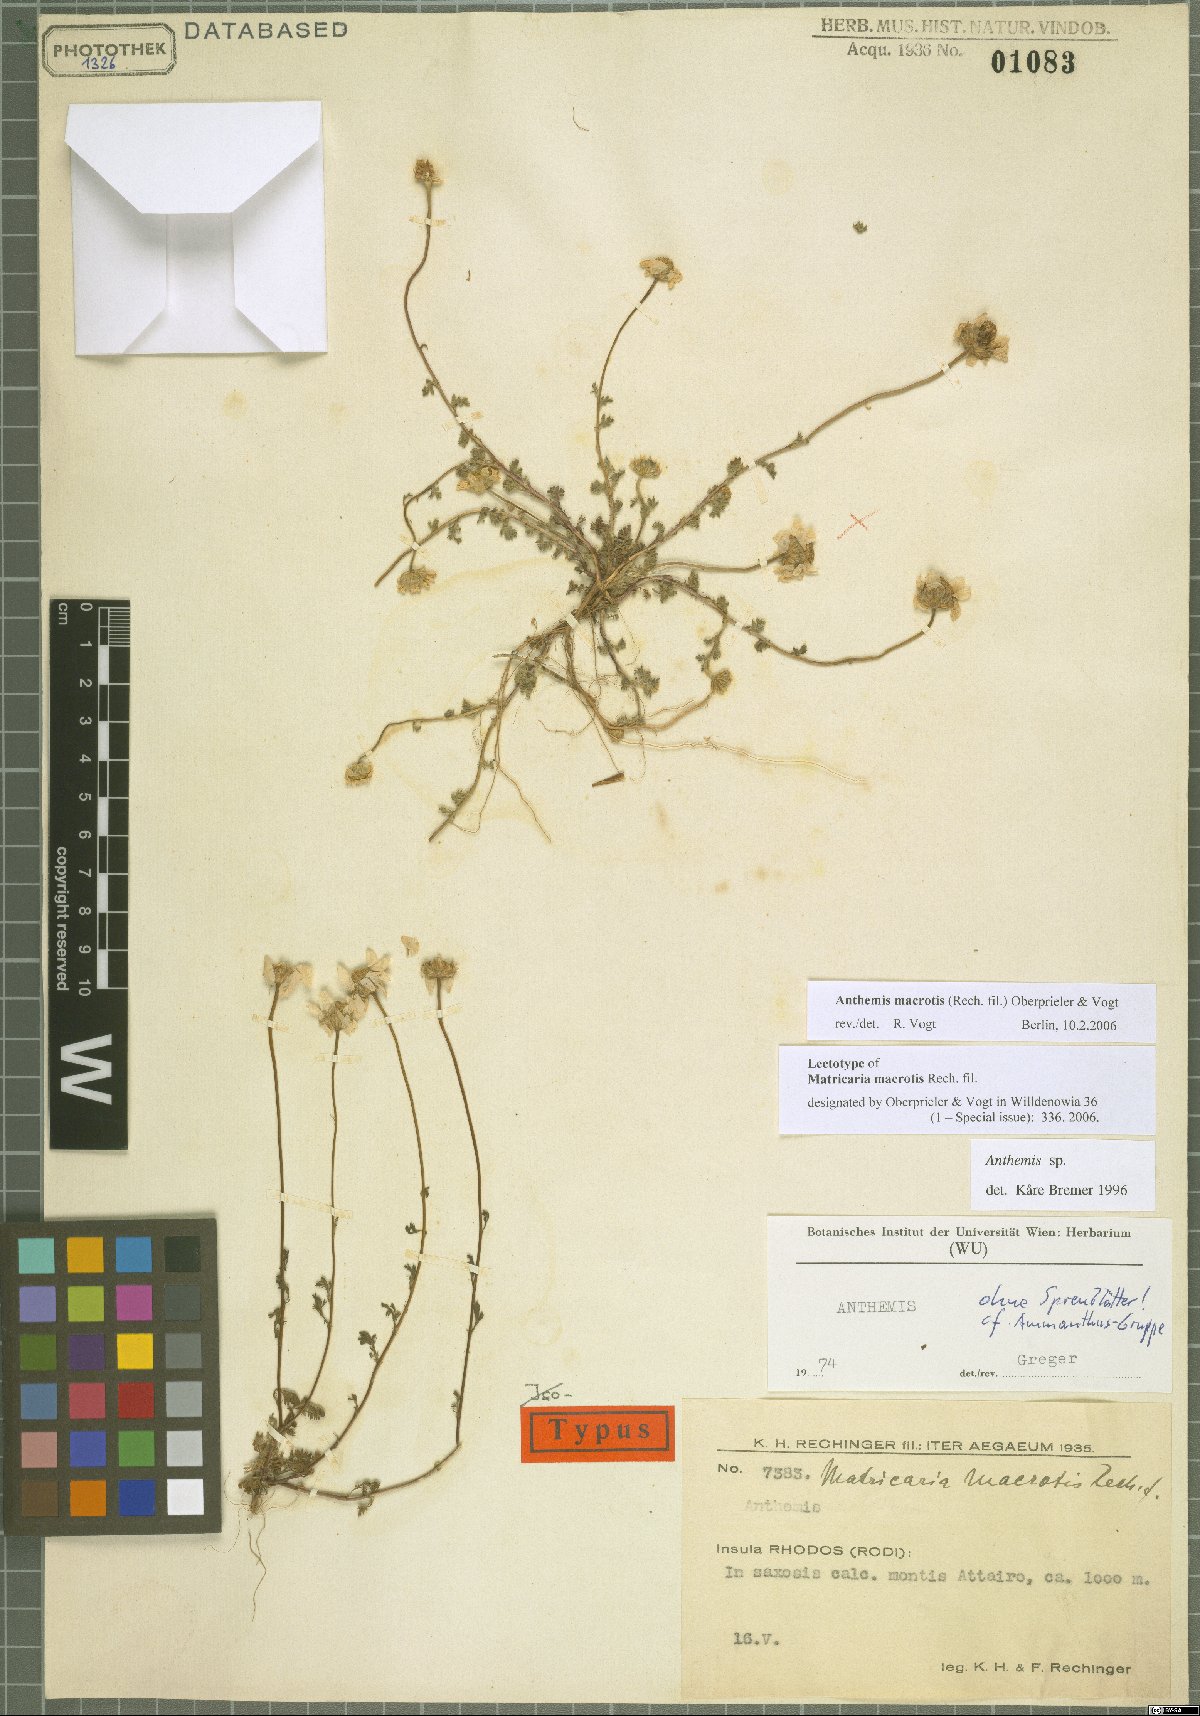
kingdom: Plantae
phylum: Tracheophyta
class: Magnoliopsida
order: Asterales
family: Asteraceae
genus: Anthemis
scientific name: Anthemis macrotis
